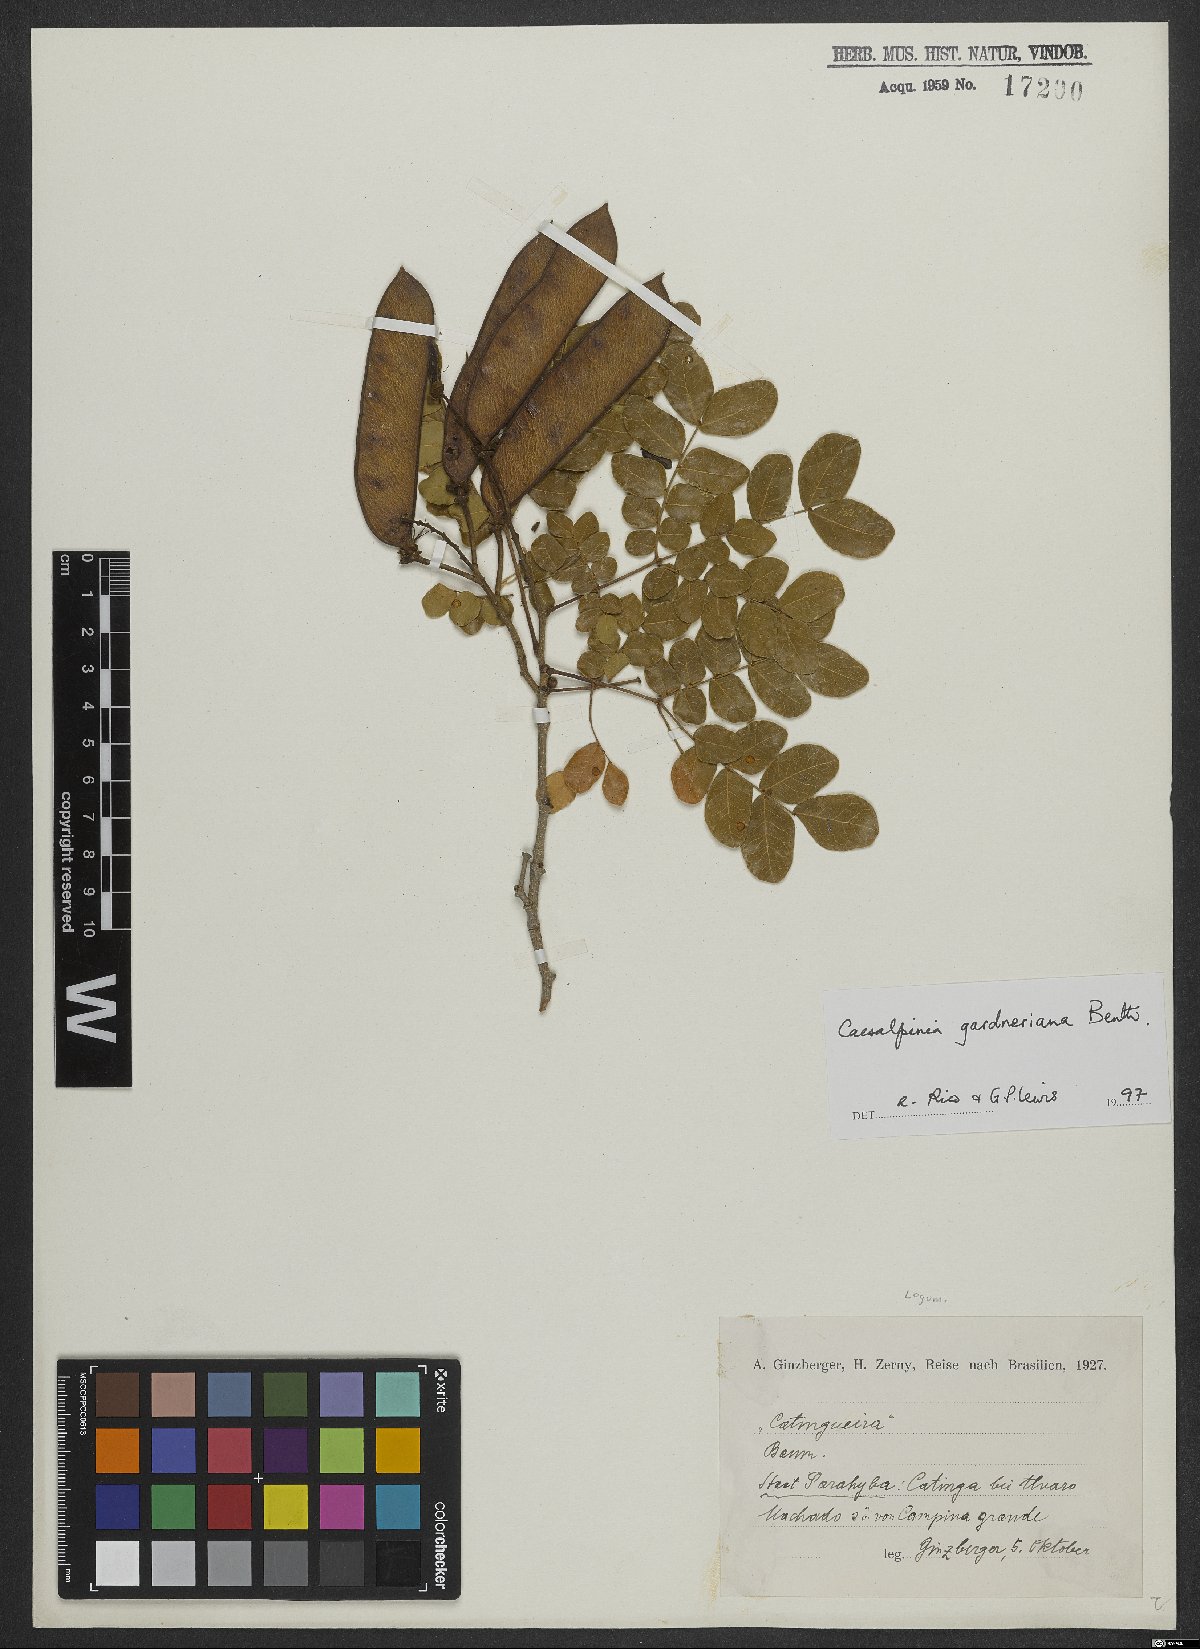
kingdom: Plantae
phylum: Tracheophyta
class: Magnoliopsida
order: Fabales
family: Fabaceae
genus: Cenostigma
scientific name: Cenostigma nordestinum
